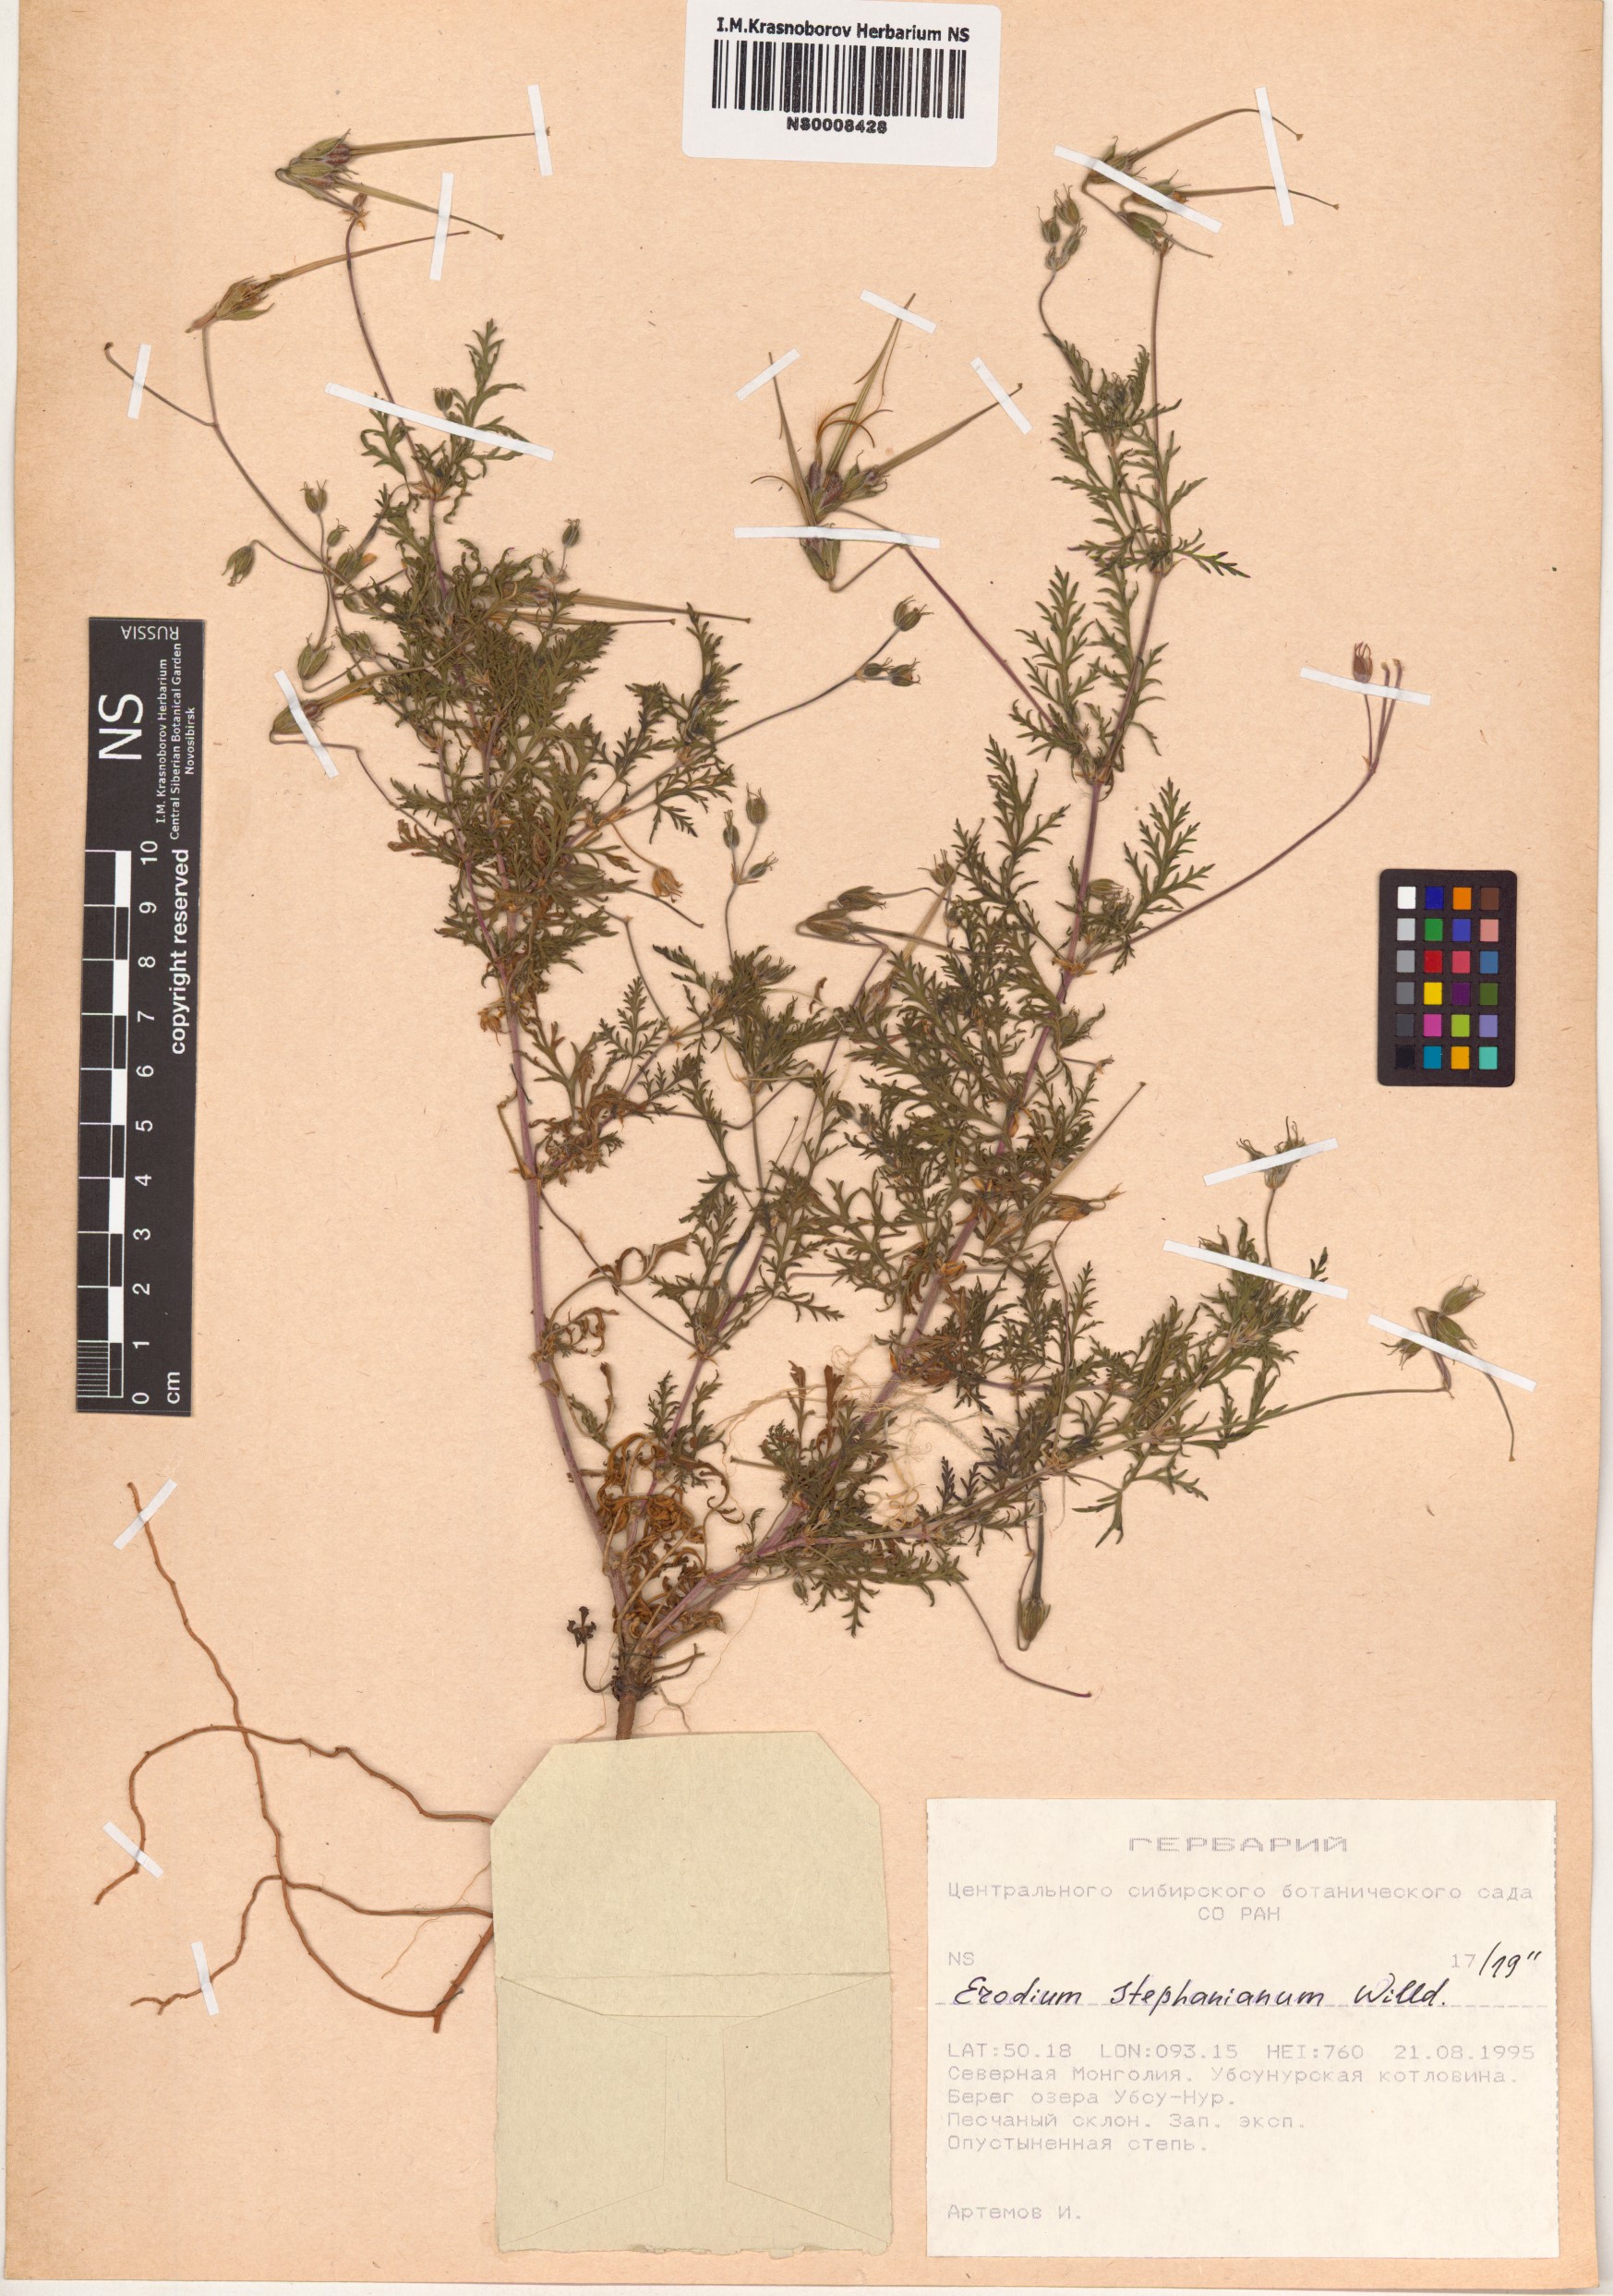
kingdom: Plantae
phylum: Tracheophyta
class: Magnoliopsida
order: Geraniales
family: Geraniaceae
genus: Erodium
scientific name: Erodium stephanianum
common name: Stephen's stork's bill
